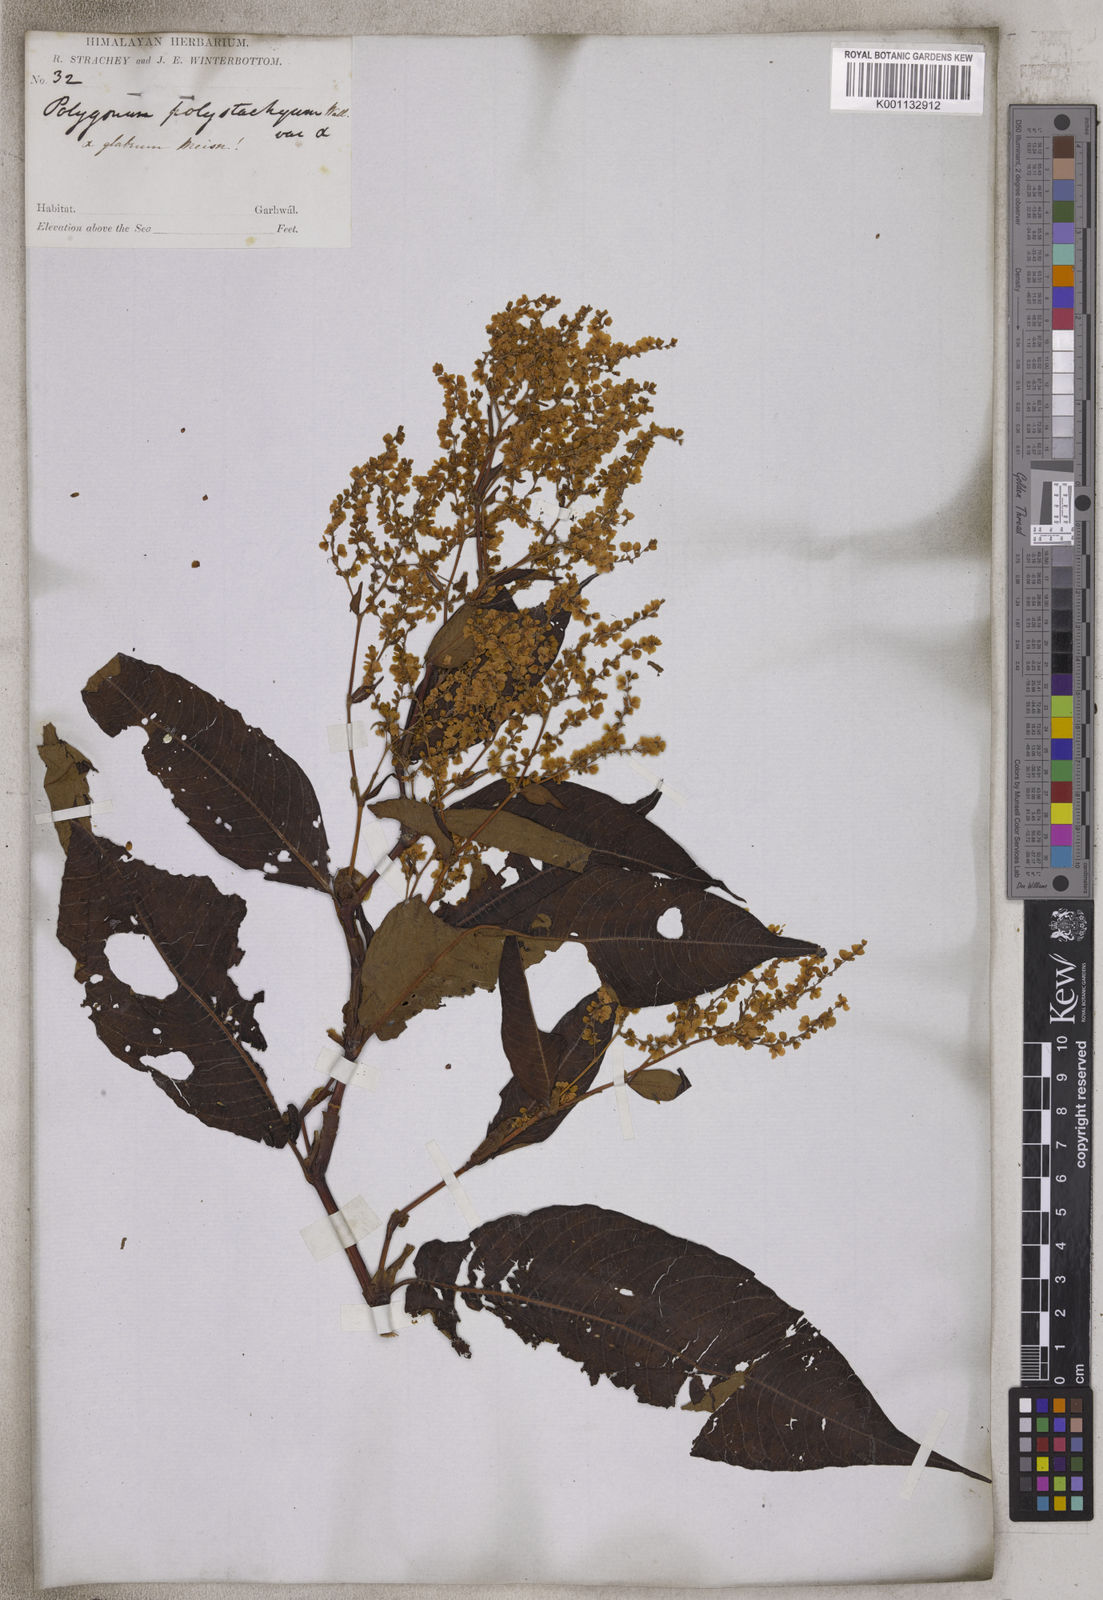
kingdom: Plantae
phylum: Tracheophyta
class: Magnoliopsida
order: Caryophyllales
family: Polygonaceae
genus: Koenigia
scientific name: Koenigia polystachya
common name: Himalayan knotweed
